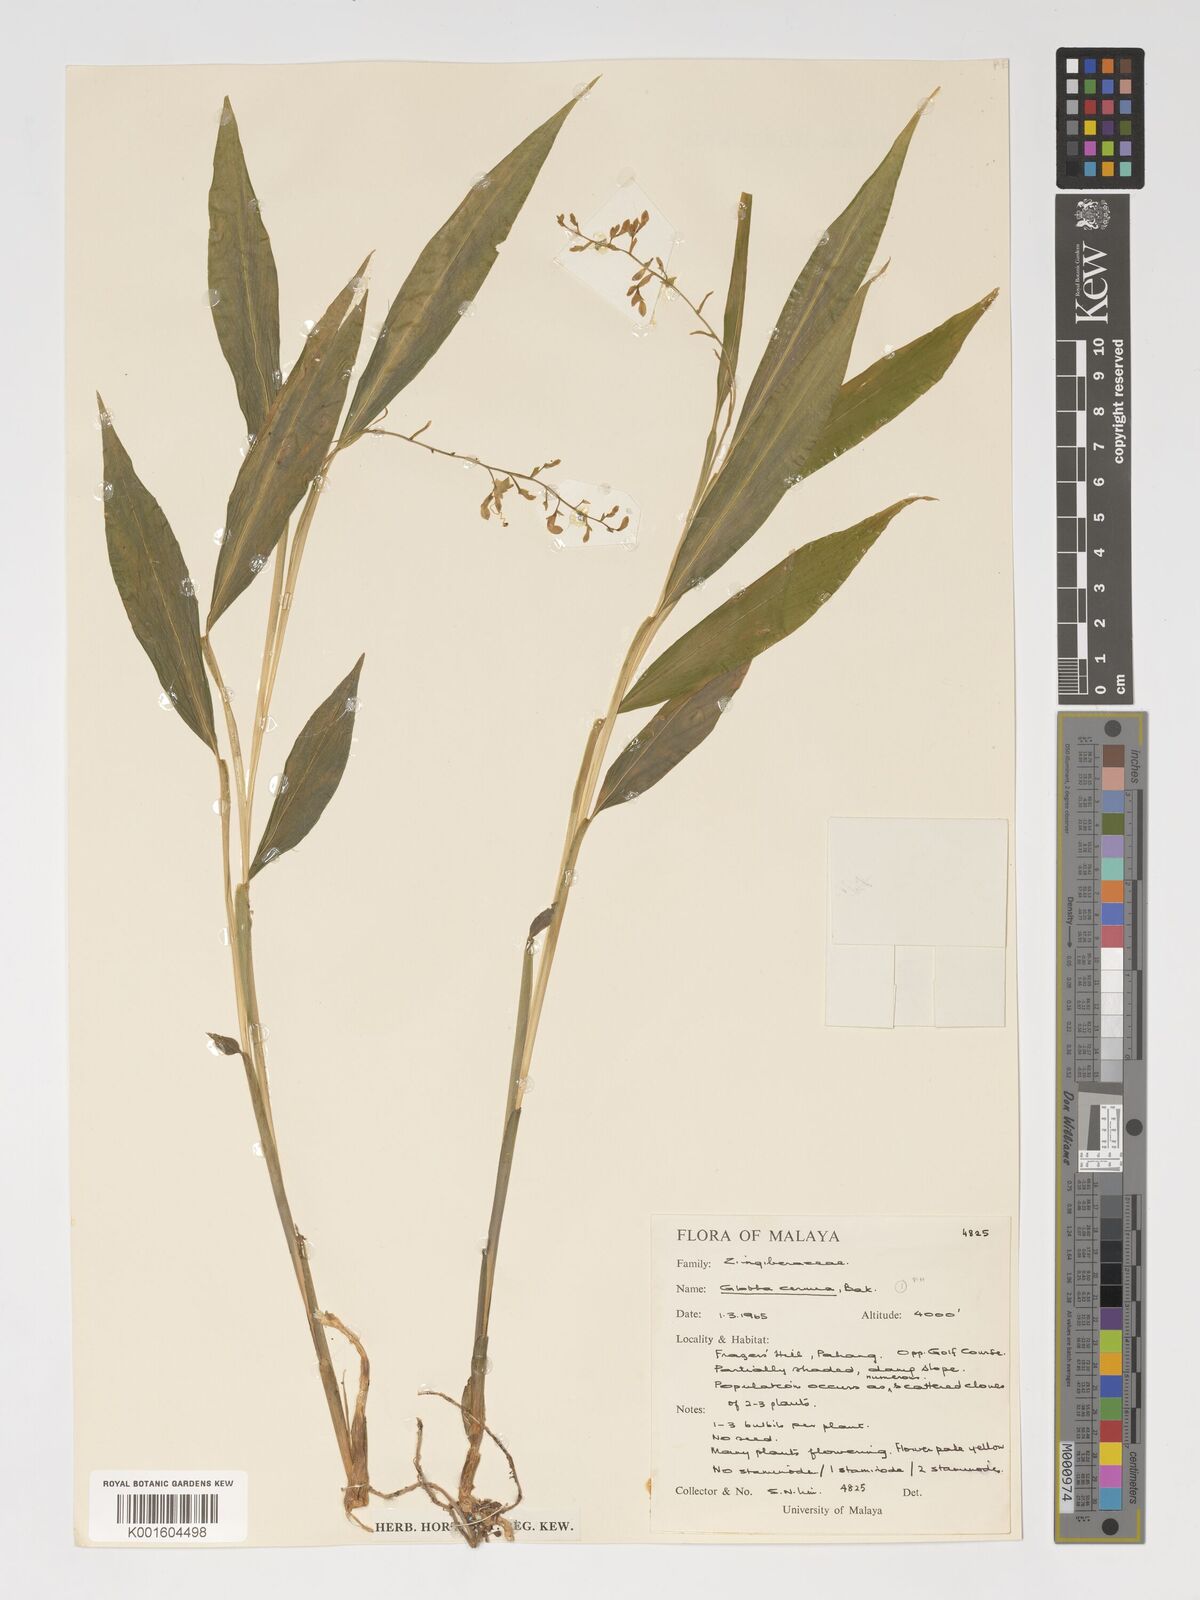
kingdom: Plantae
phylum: Tracheophyta
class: Liliopsida
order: Zingiberales
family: Zingiberaceae
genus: Globba
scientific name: Globba cernua
